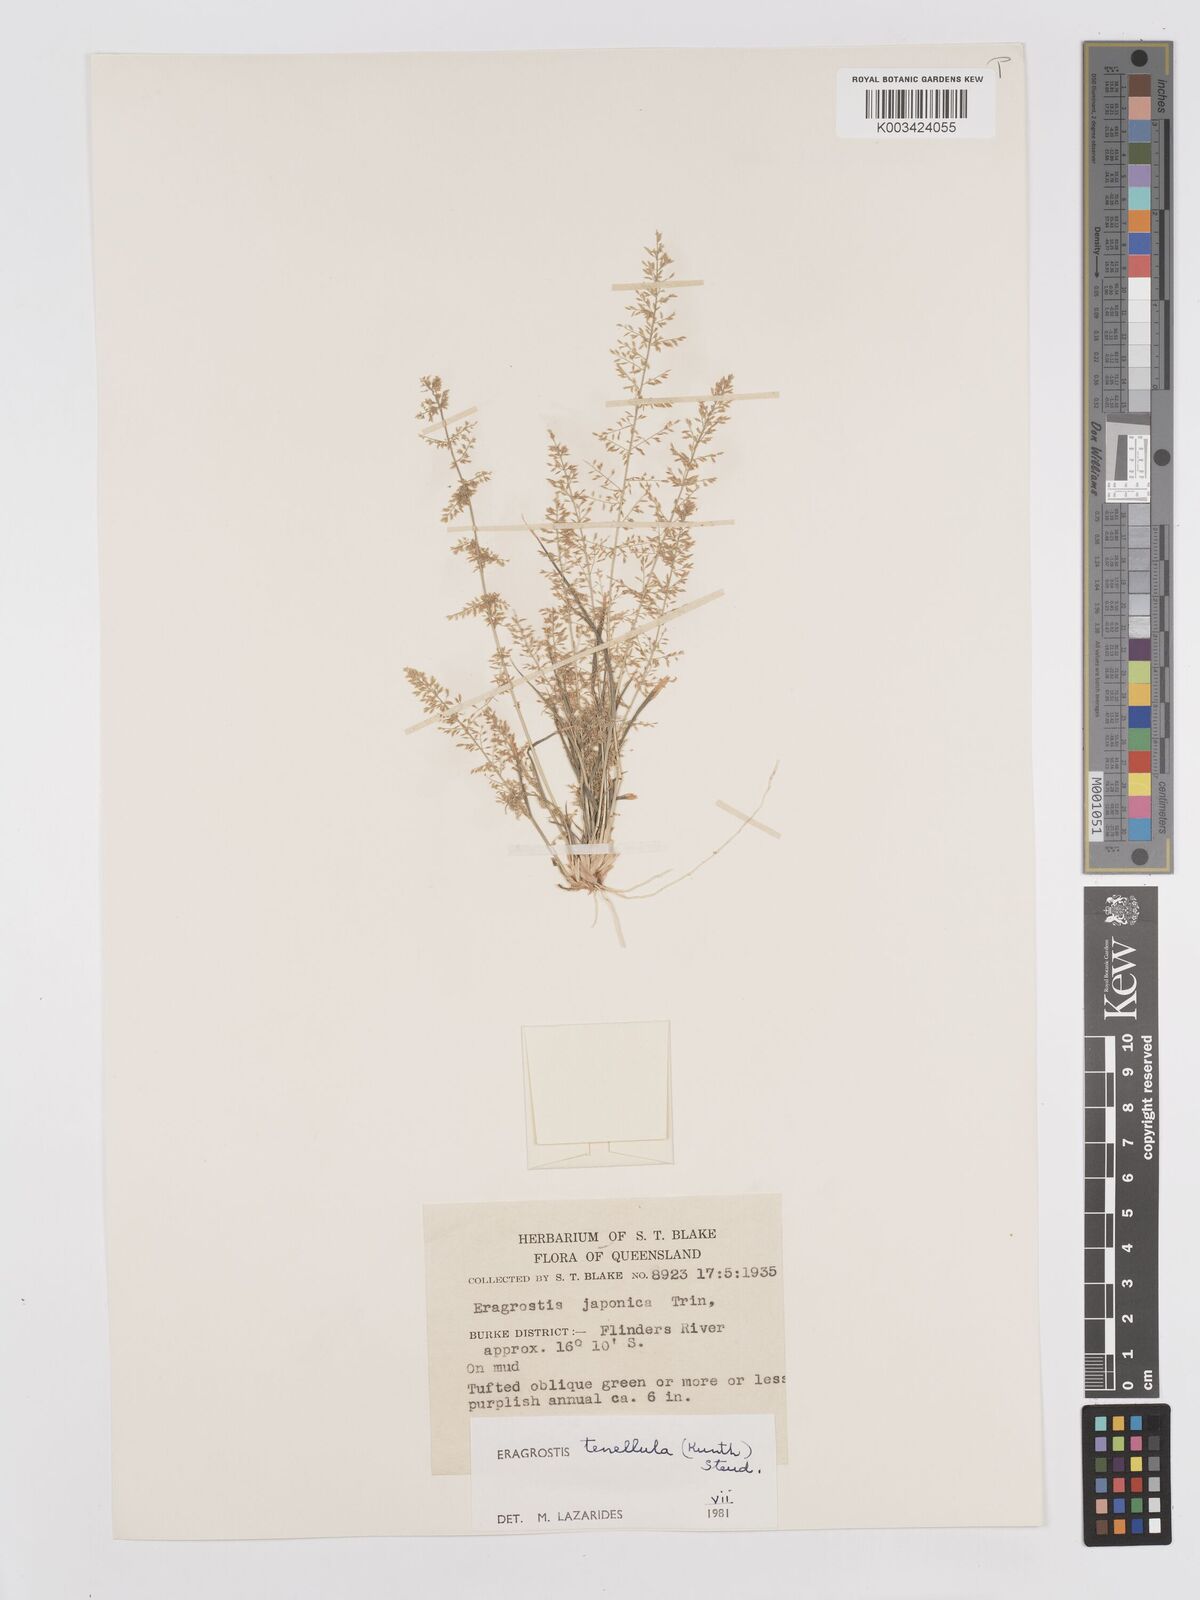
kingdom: Plantae
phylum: Tracheophyta
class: Liliopsida
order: Poales
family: Poaceae
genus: Eragrostis
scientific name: Eragrostis tenellula
